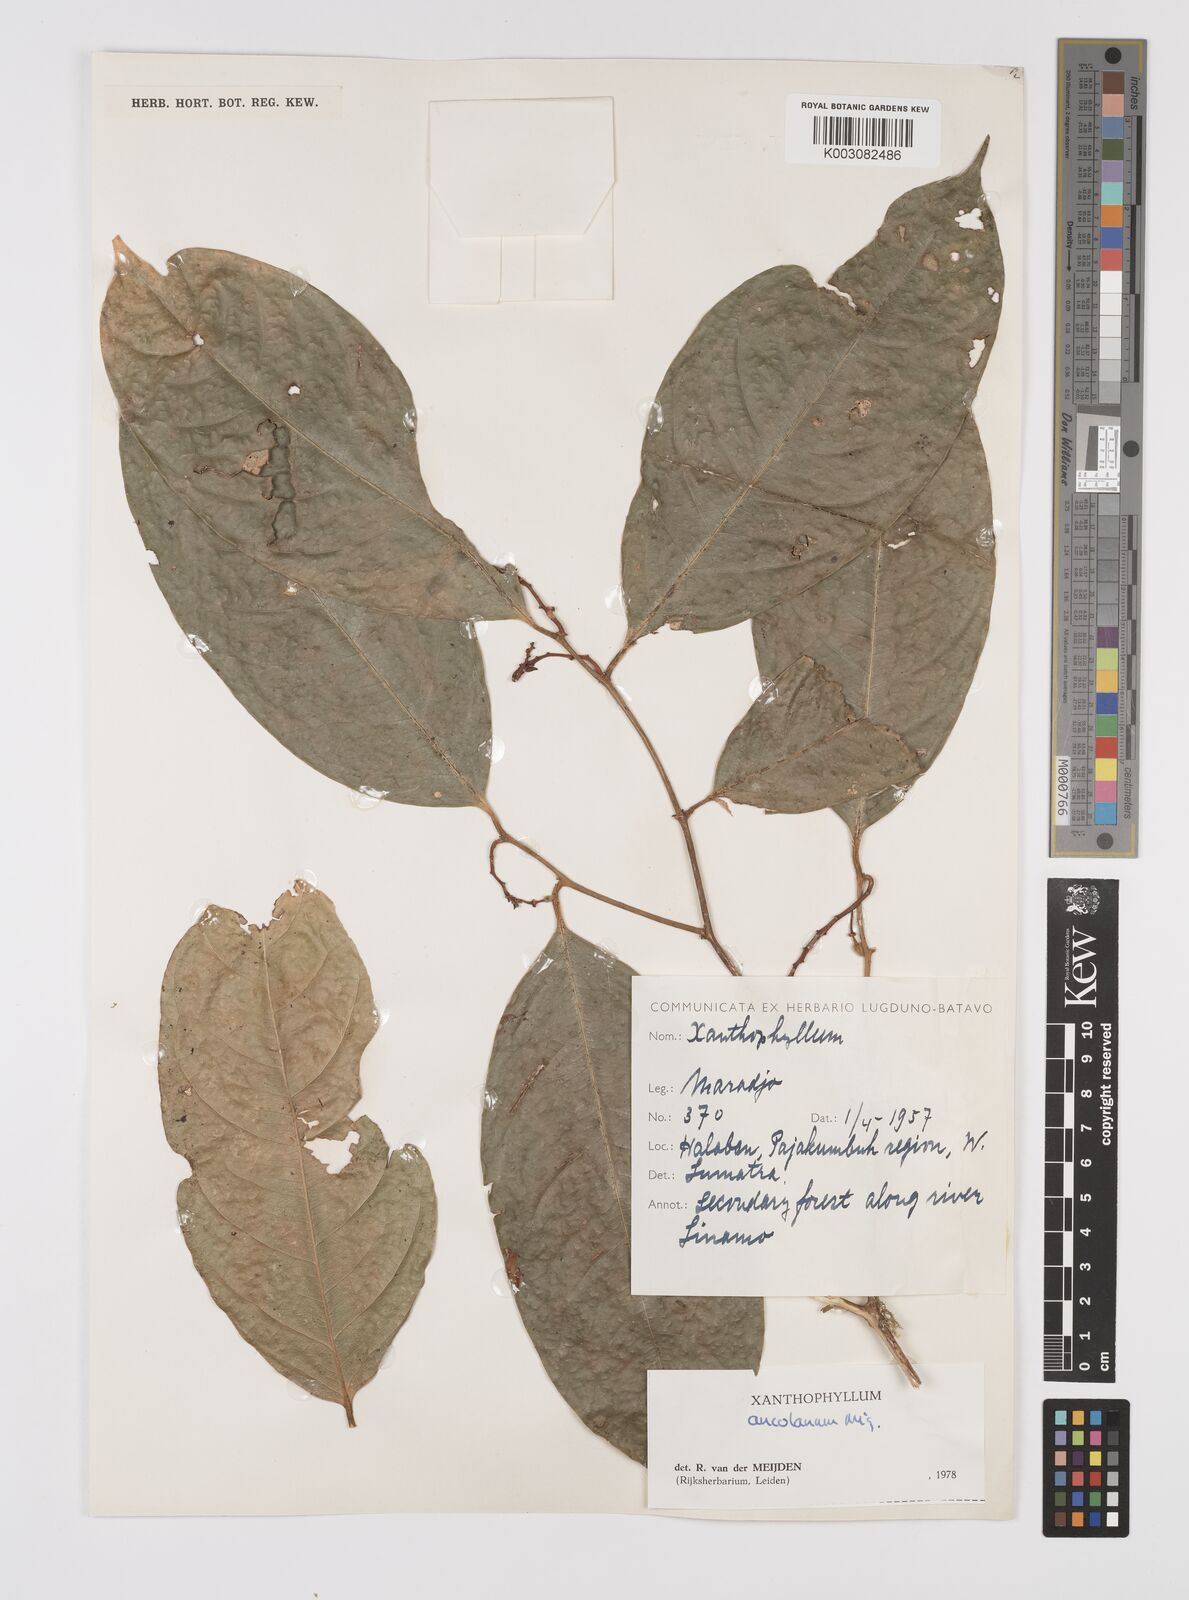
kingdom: Plantae
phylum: Tracheophyta
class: Magnoliopsida
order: Fabales
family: Polygalaceae
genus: Xanthophyllum
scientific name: Xanthophyllum ancolanum
